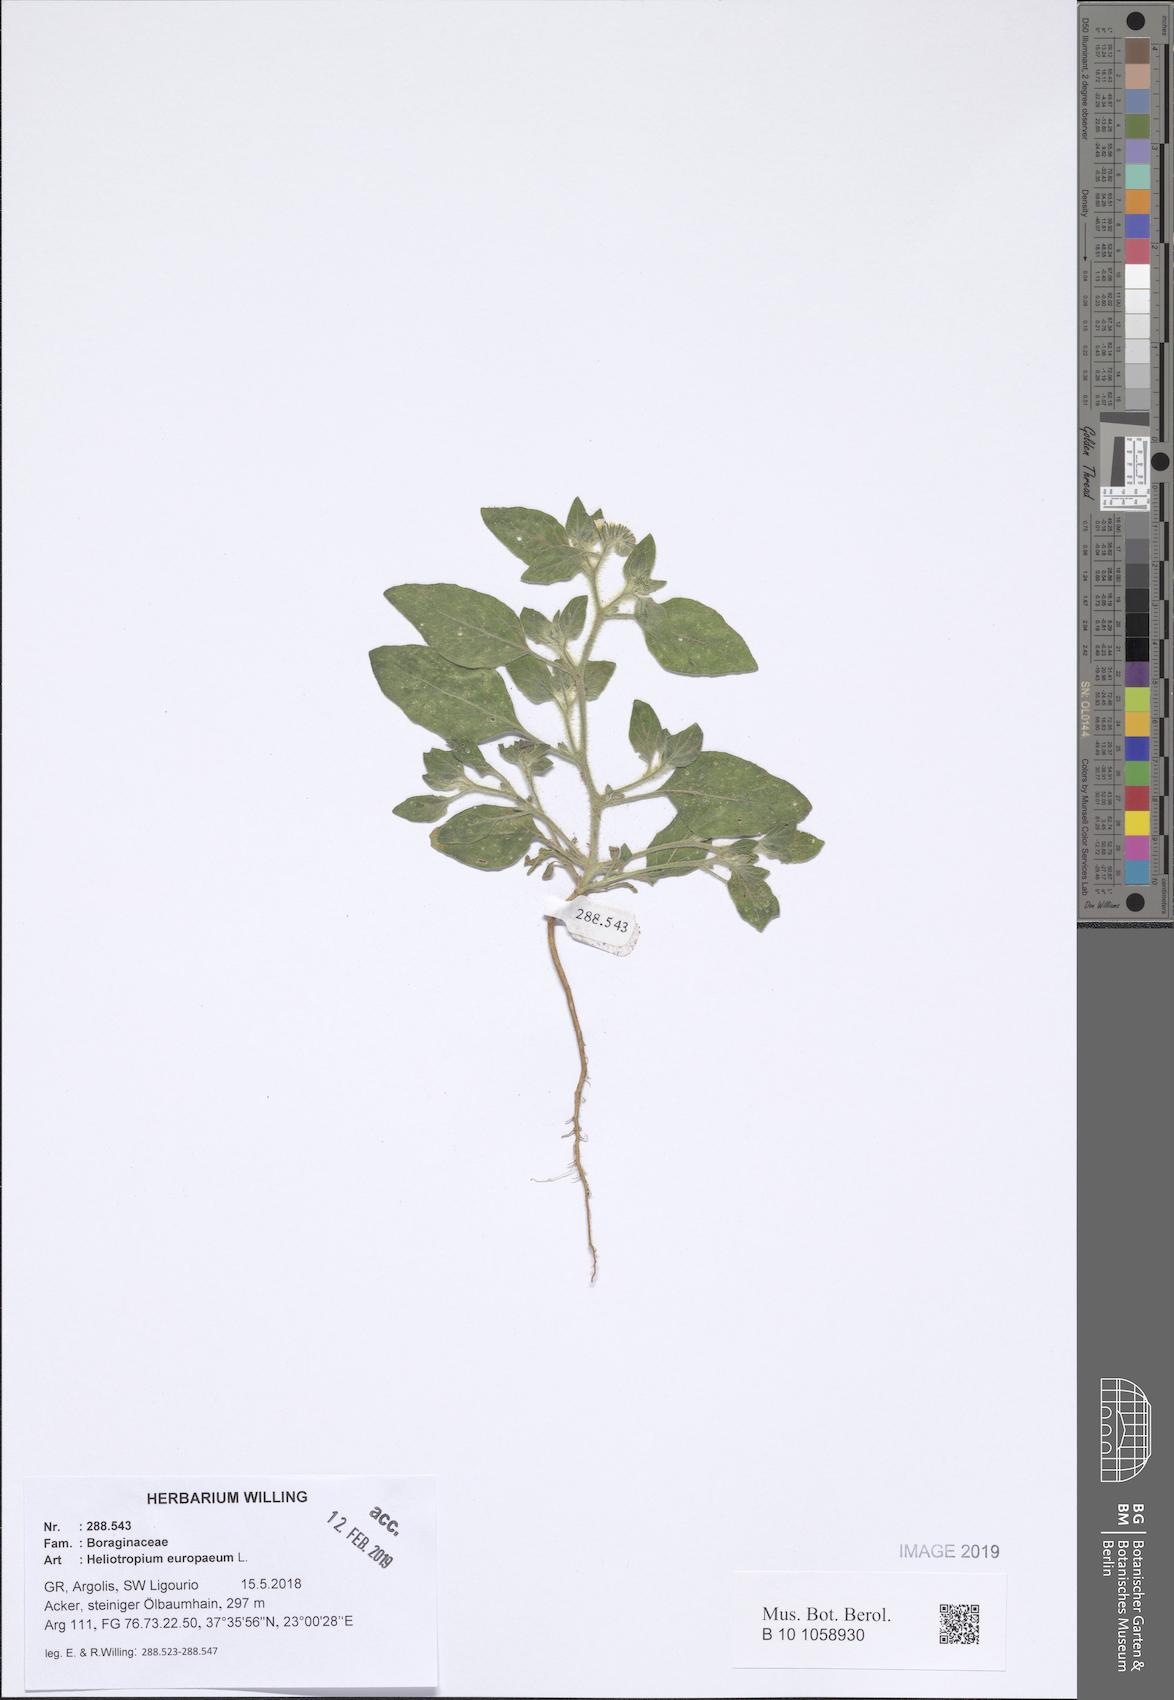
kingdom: Plantae
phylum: Tracheophyta
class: Magnoliopsida
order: Boraginales
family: Heliotropiaceae
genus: Heliotropium
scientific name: Heliotropium europaeum
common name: European heliotrope
